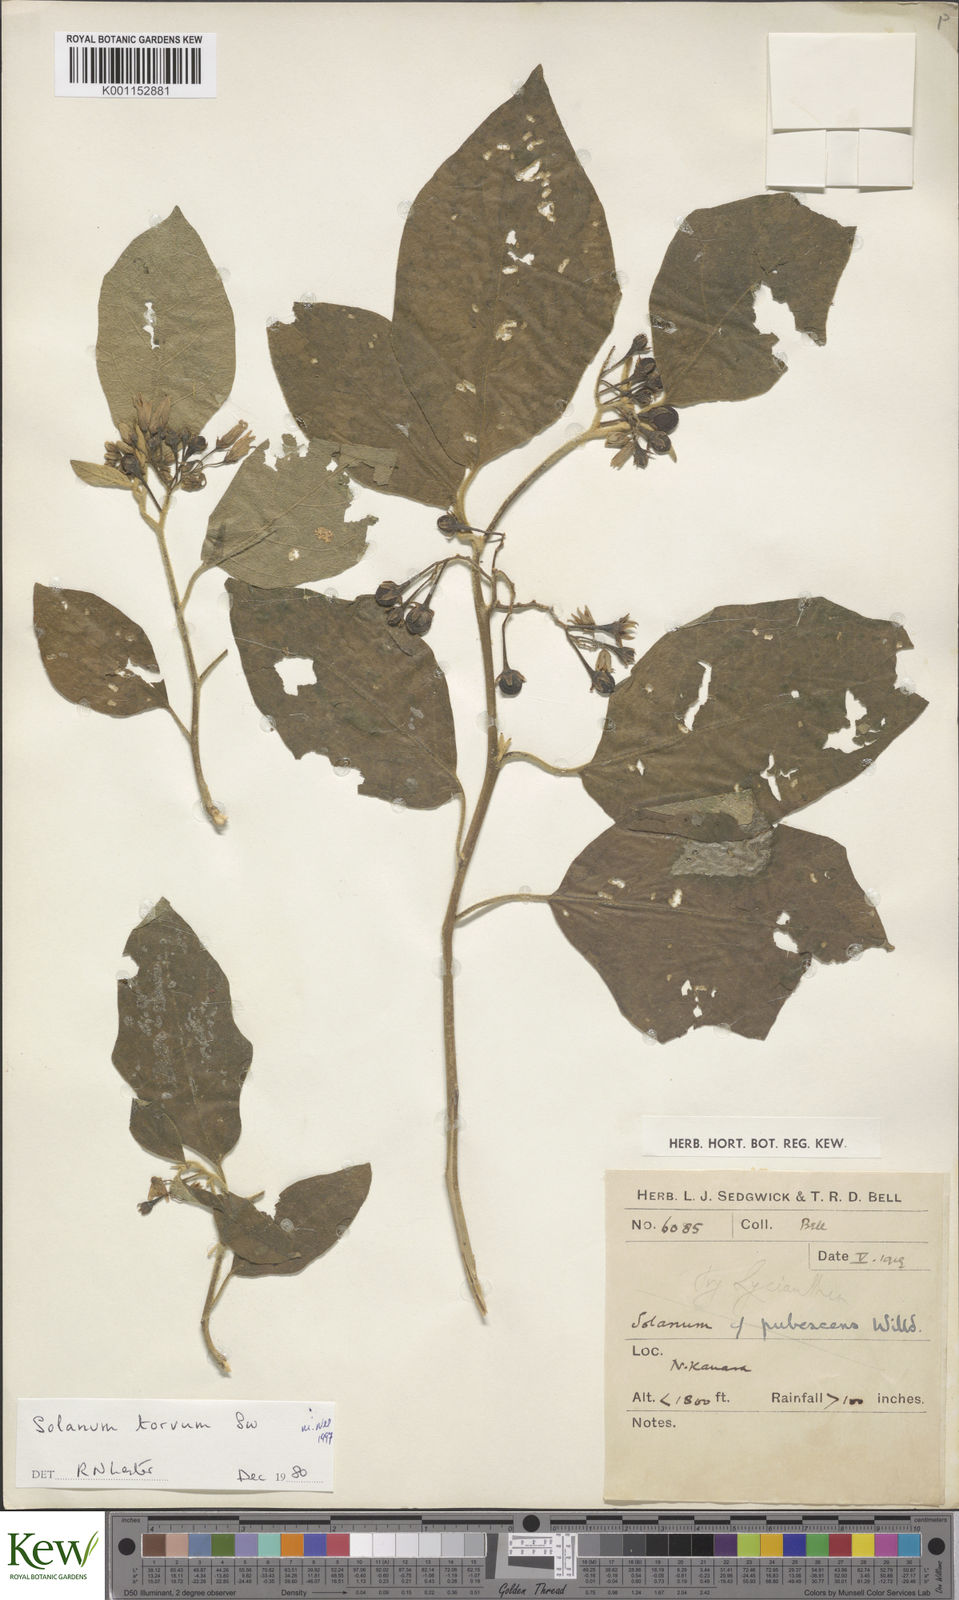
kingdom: Plantae
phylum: Tracheophyta
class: Magnoliopsida
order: Solanales
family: Solanaceae
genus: Solanum
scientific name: Solanum torvum
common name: Turkey berry
